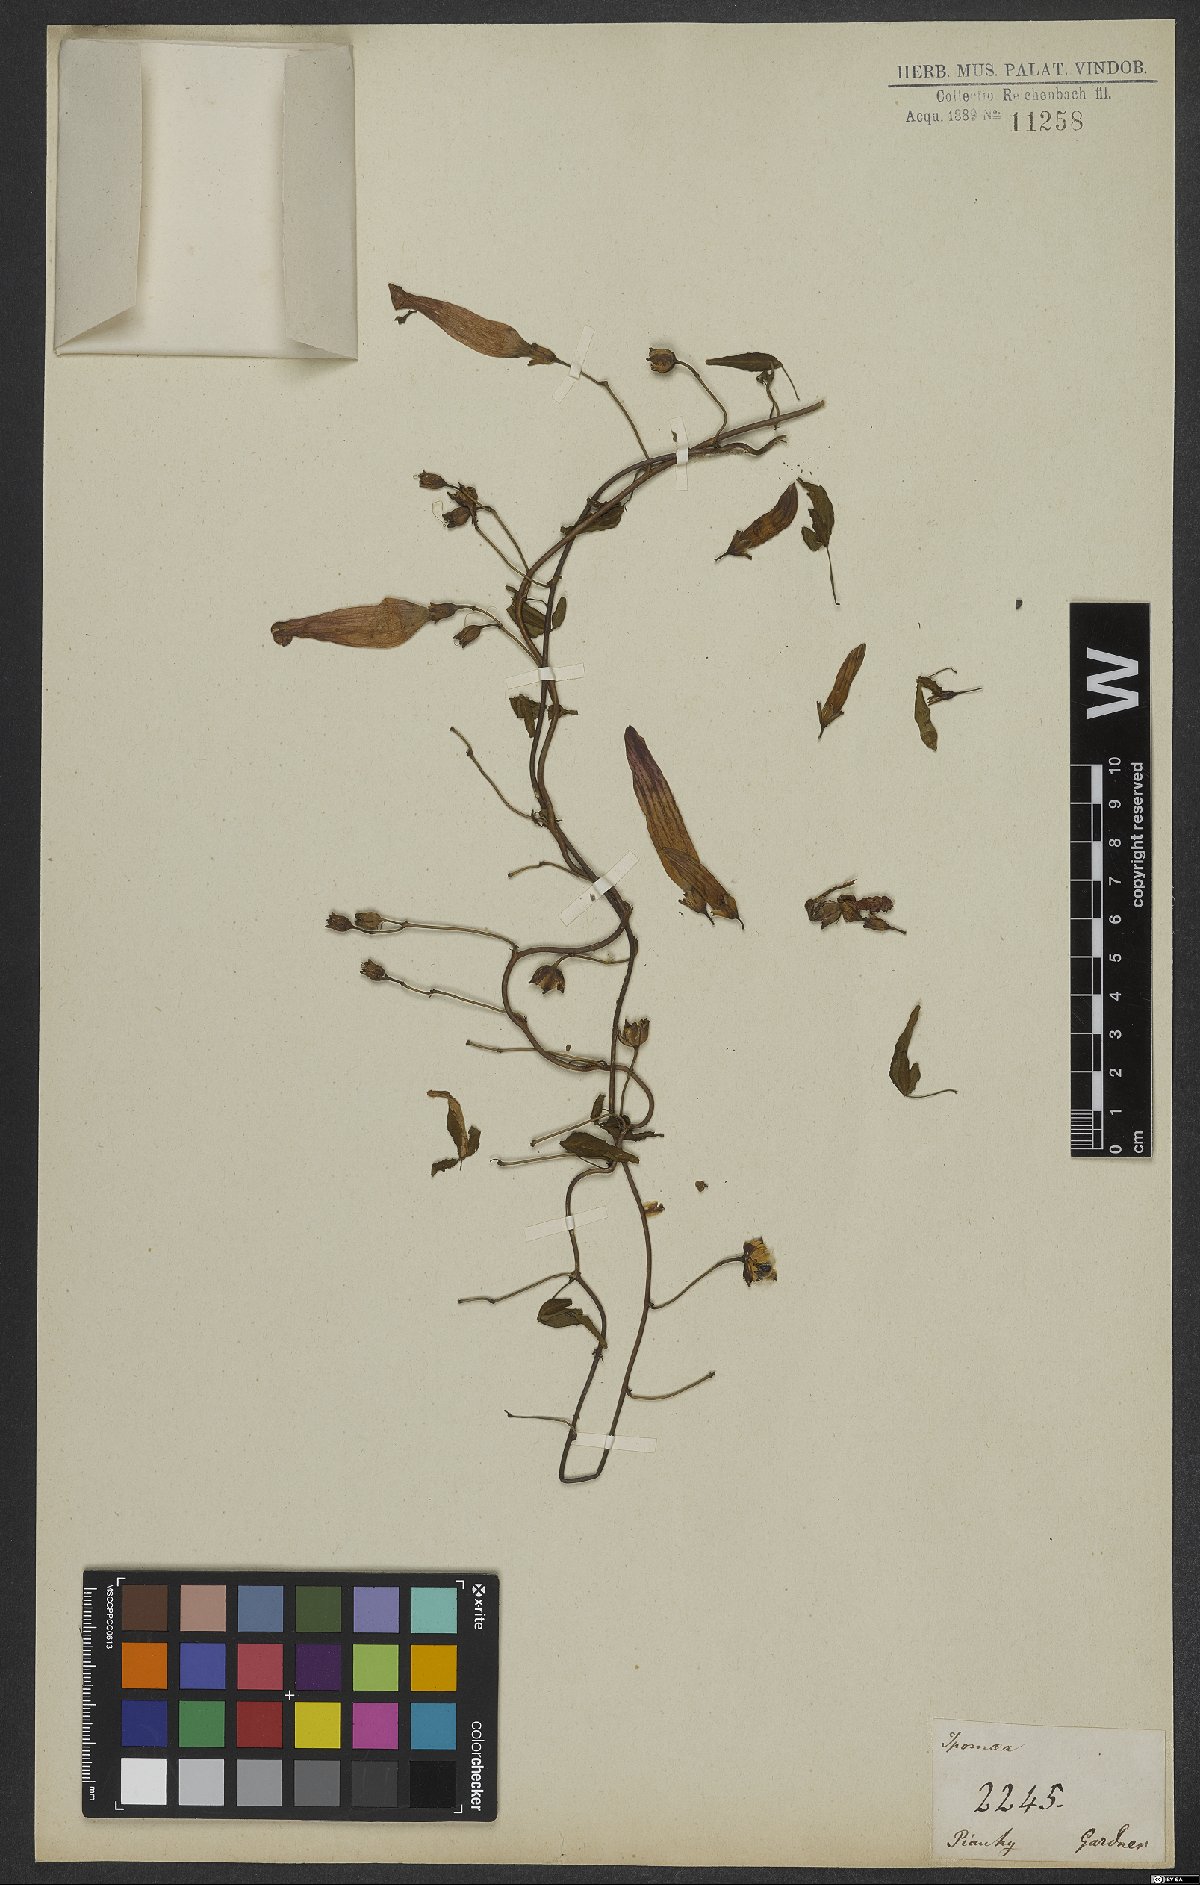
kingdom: Plantae
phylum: Tracheophyta
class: Magnoliopsida
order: Solanales
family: Convolvulaceae
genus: Ipomoea
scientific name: Ipomoea rosea
